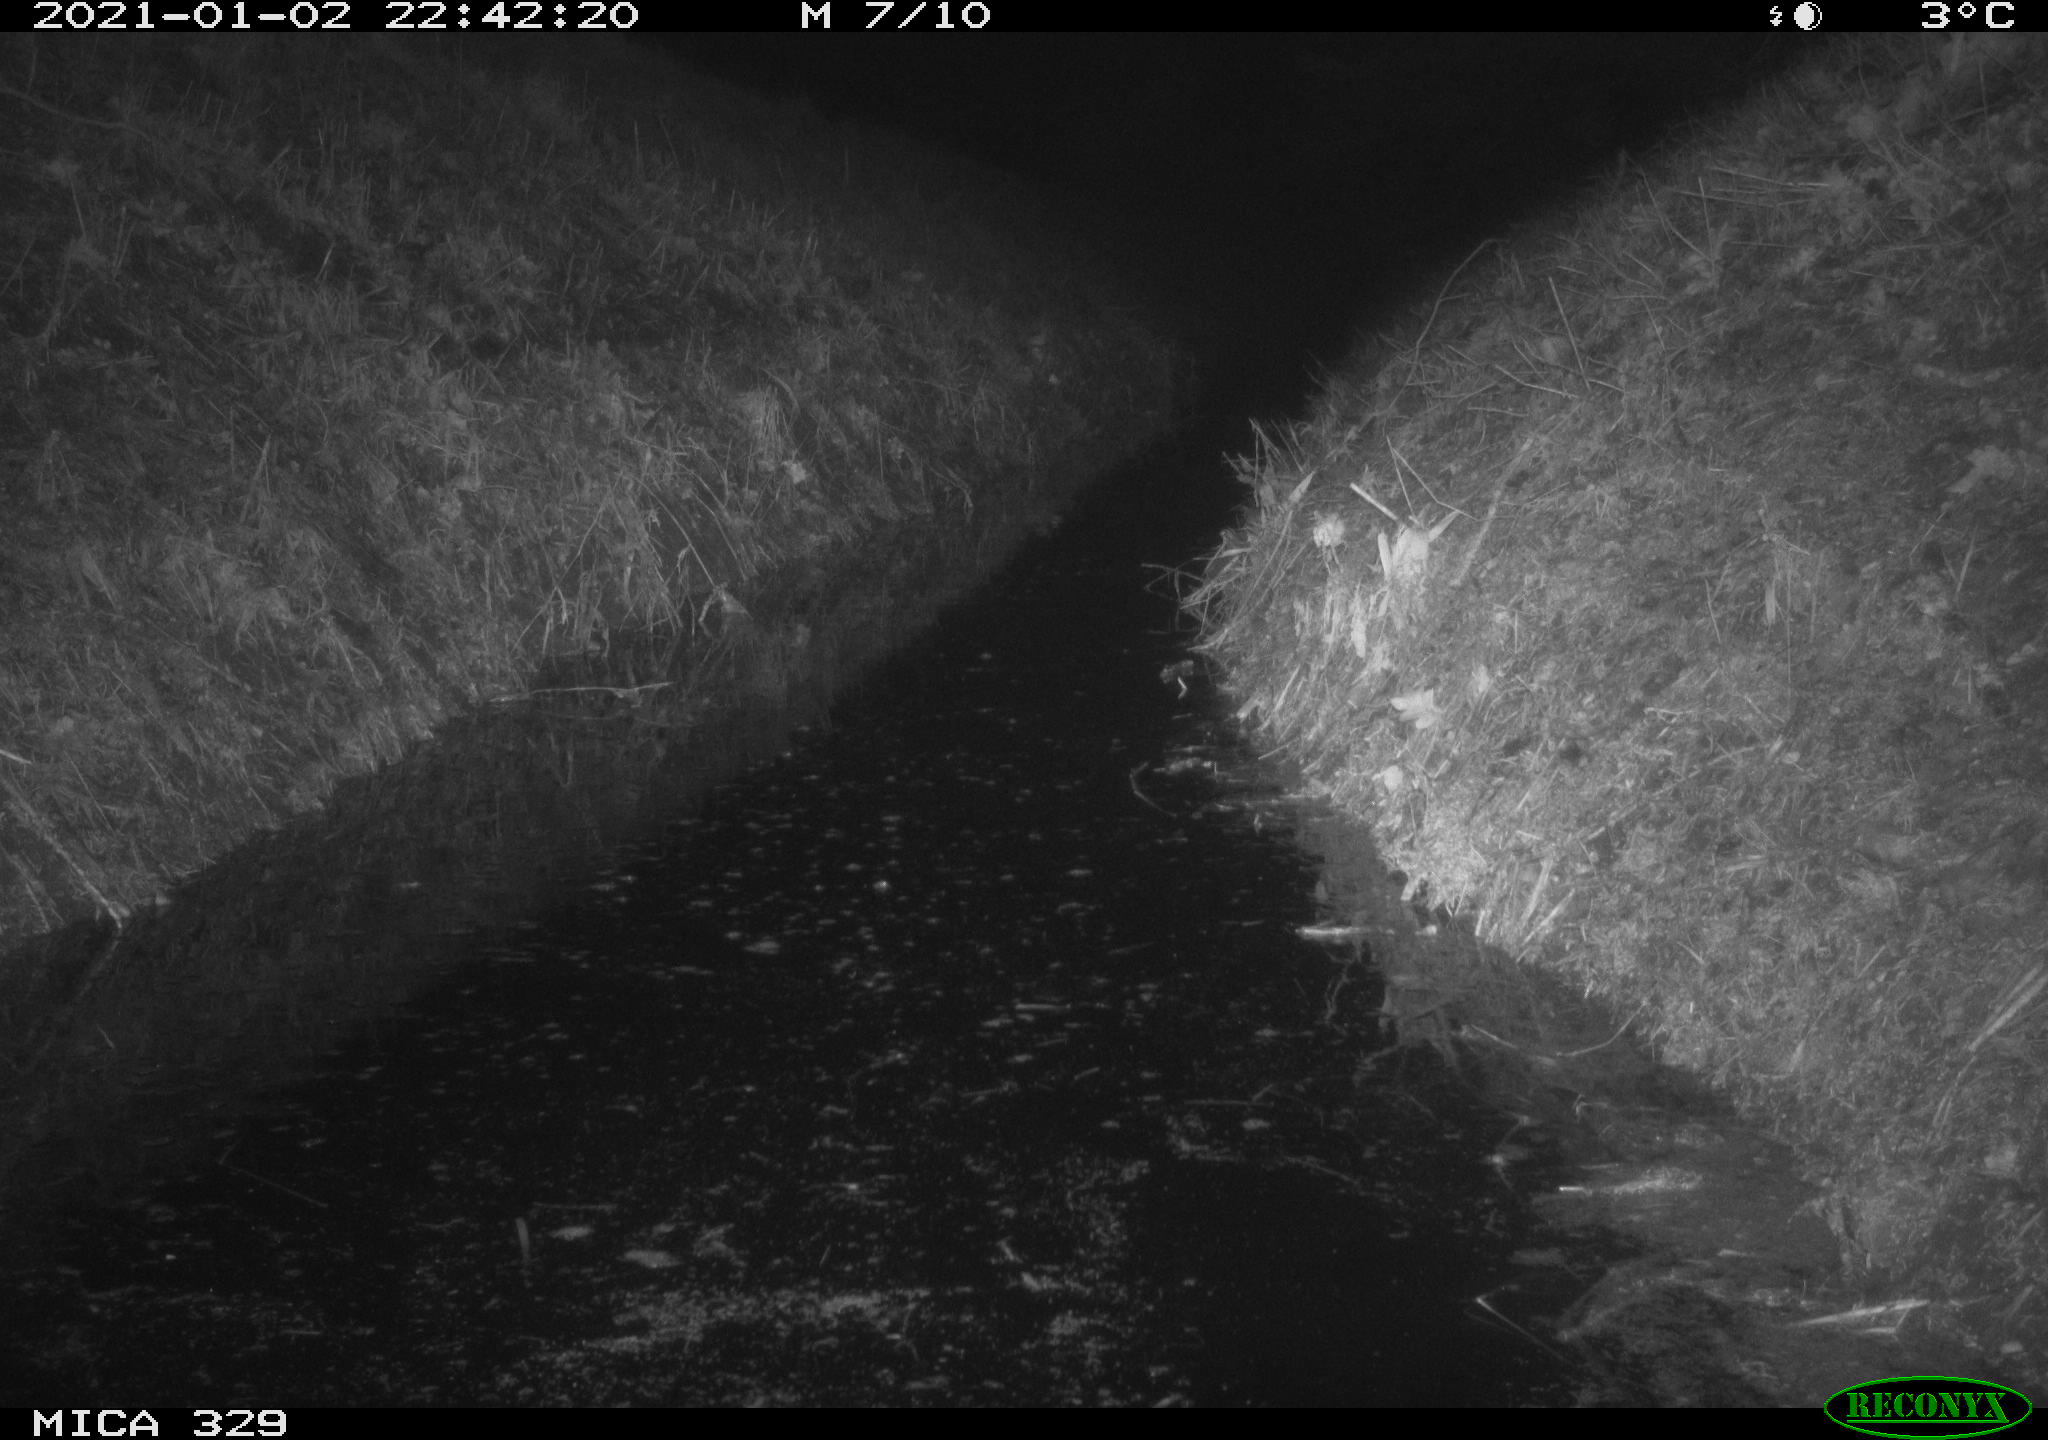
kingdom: Animalia
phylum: Chordata
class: Mammalia
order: Rodentia
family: Muridae
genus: Rattus
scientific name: Rattus norvegicus
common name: Brown rat
